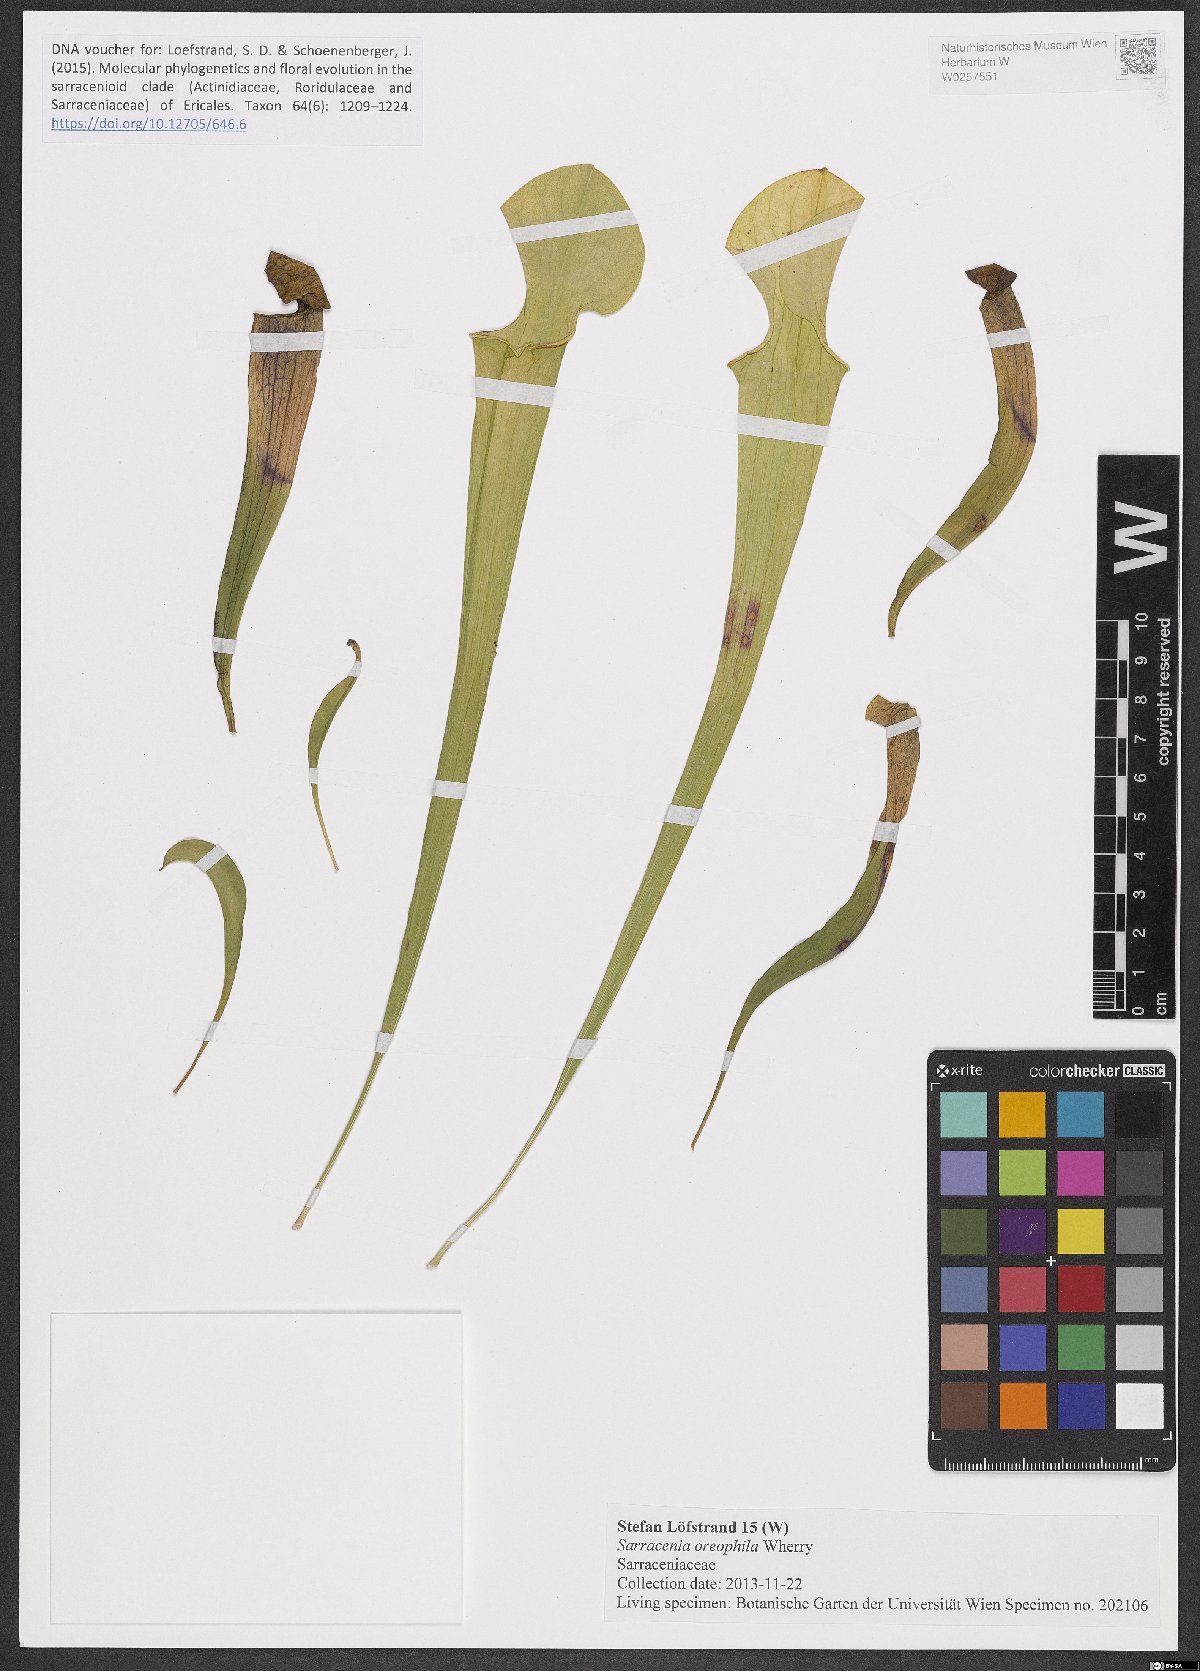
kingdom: Plantae
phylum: Tracheophyta
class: Magnoliopsida
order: Ericales
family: Sarraceniaceae
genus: Sarracenia
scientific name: Sarracenia oreophila
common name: Green pitcherplant
